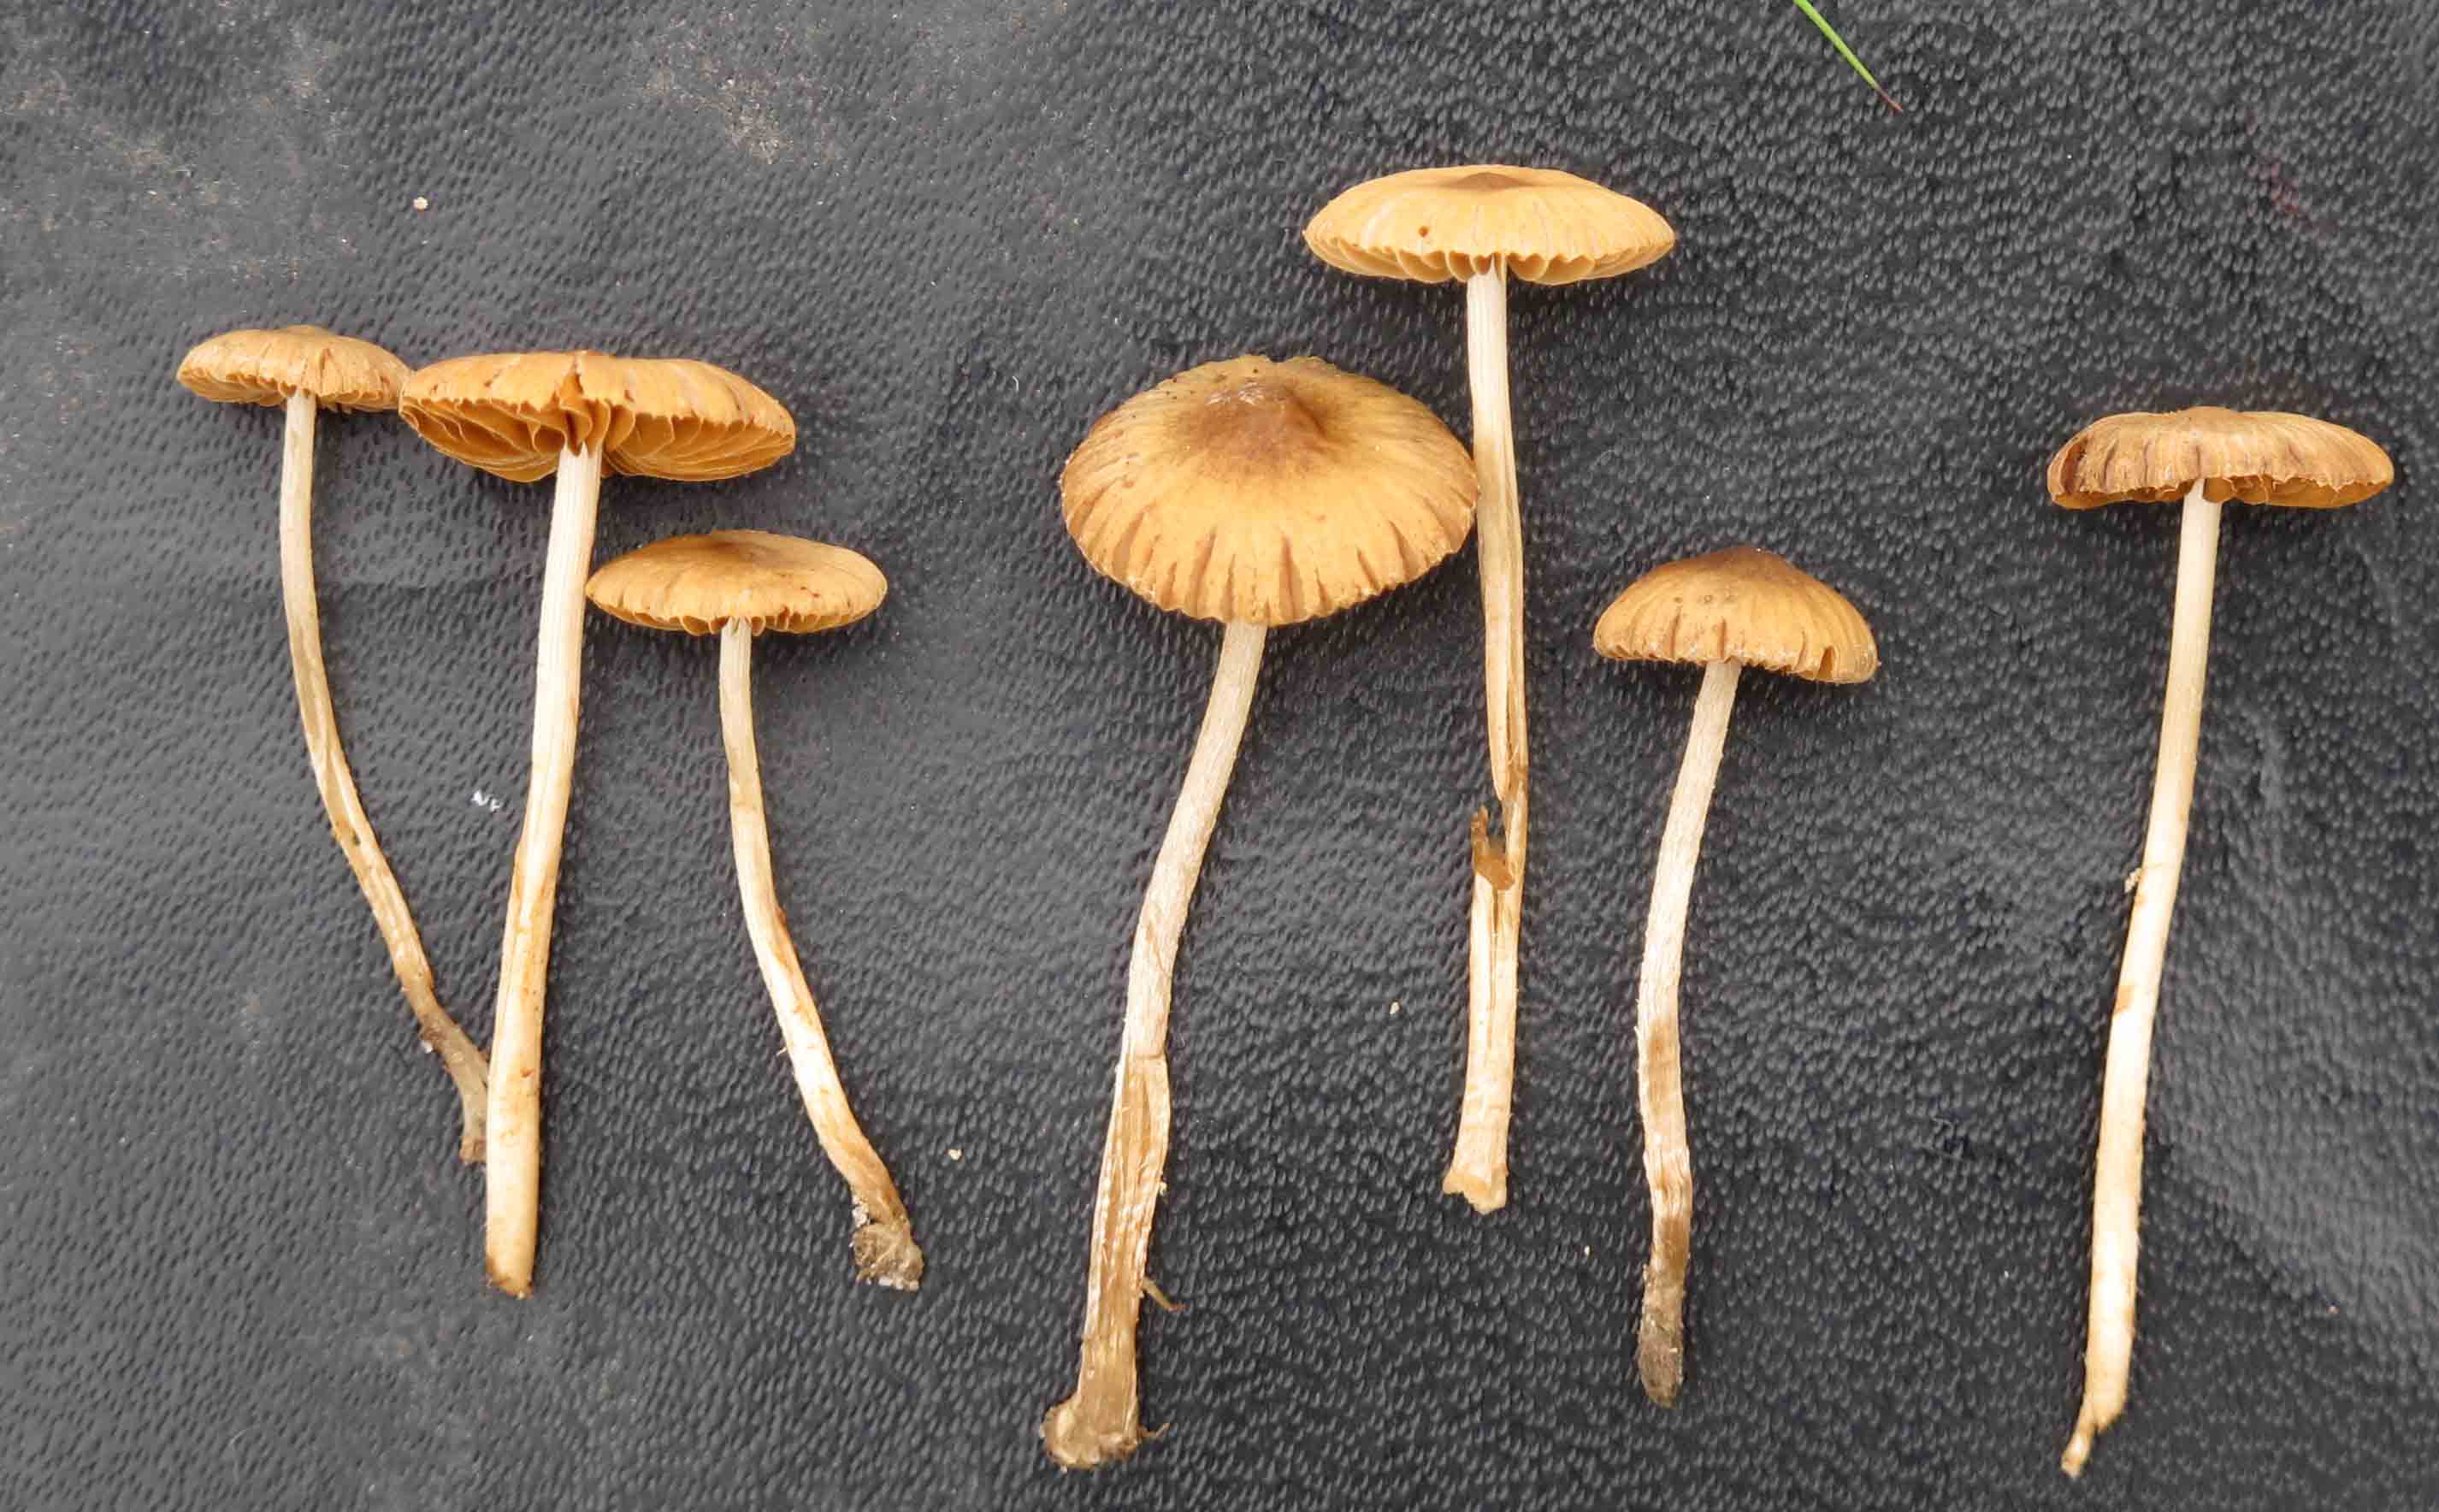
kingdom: Fungi
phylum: Basidiomycota
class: Agaricomycetes
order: Agaricales
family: Bolbitiaceae
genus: Pholiotina
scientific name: Pholiotina sulcata
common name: plisseret dansehat
